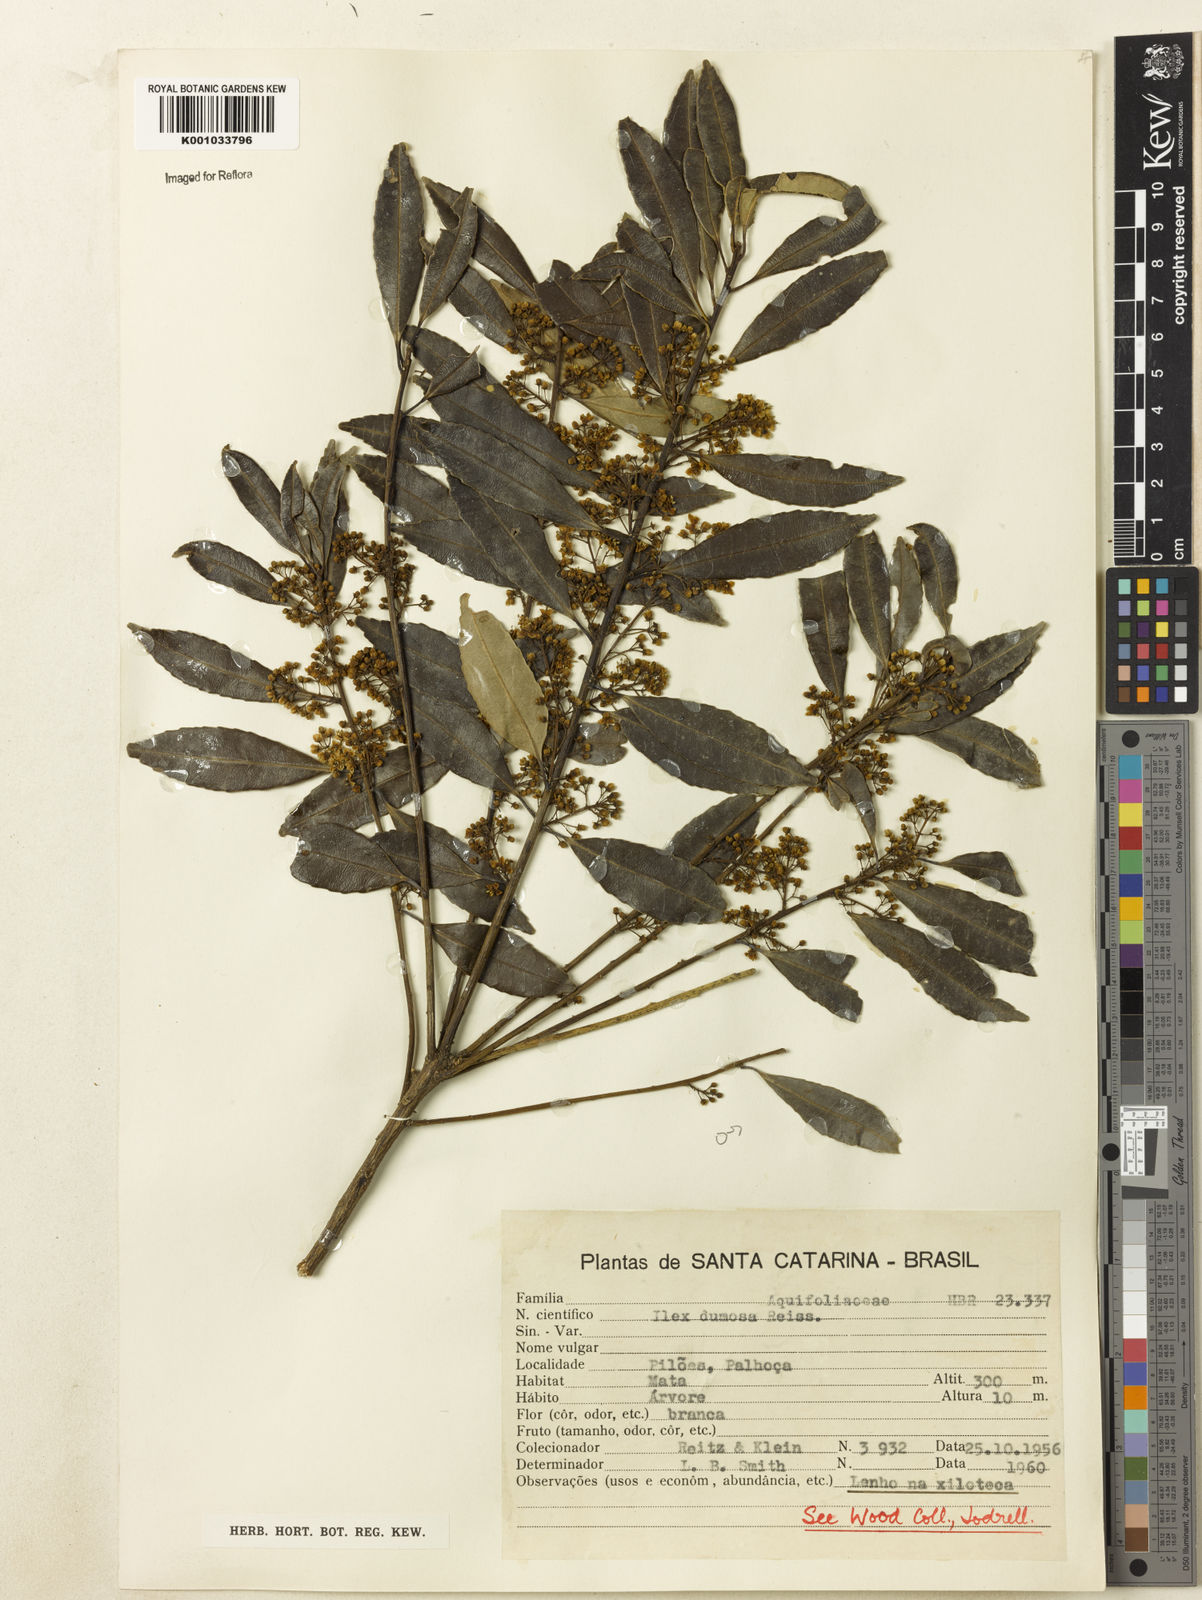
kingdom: Plantae
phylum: Tracheophyta
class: Magnoliopsida
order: Aquifoliales
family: Aquifoliaceae
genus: Ilex
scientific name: Ilex dumosa
